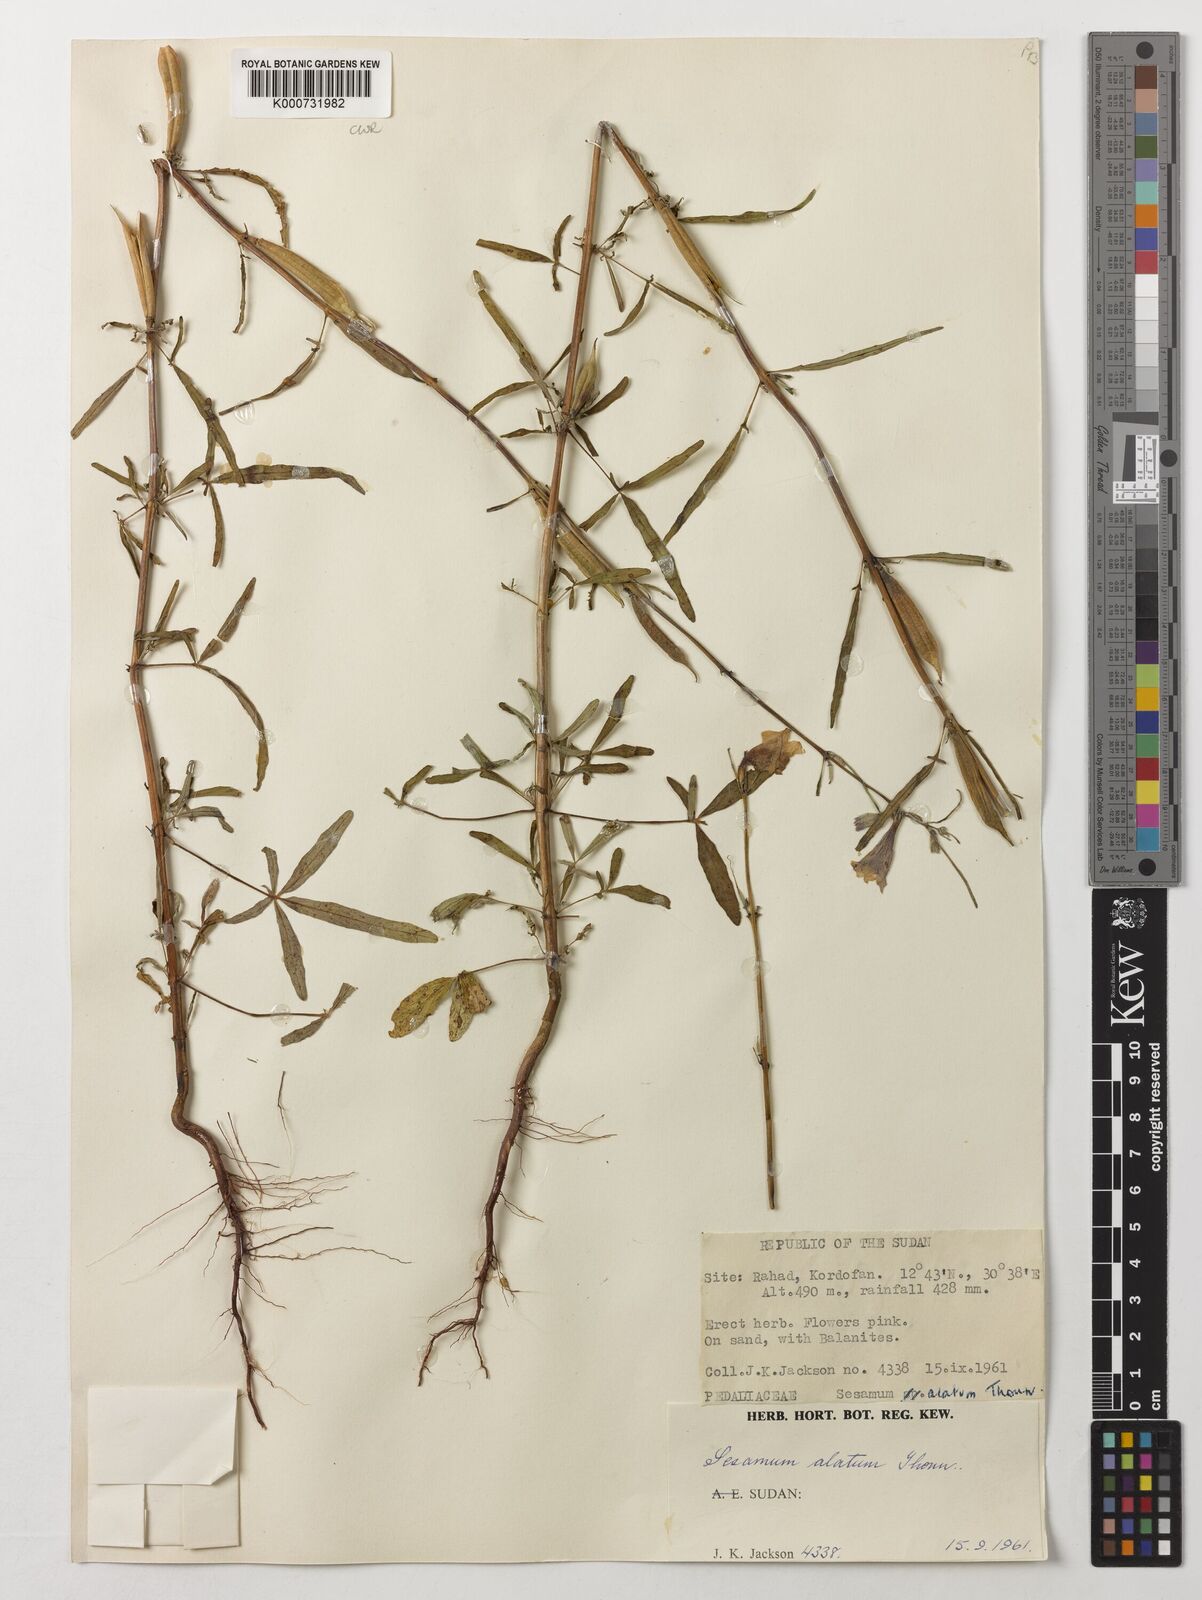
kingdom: Plantae
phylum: Tracheophyta
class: Magnoliopsida
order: Lamiales
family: Pedaliaceae
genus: Sesamum
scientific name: Sesamum alatum
